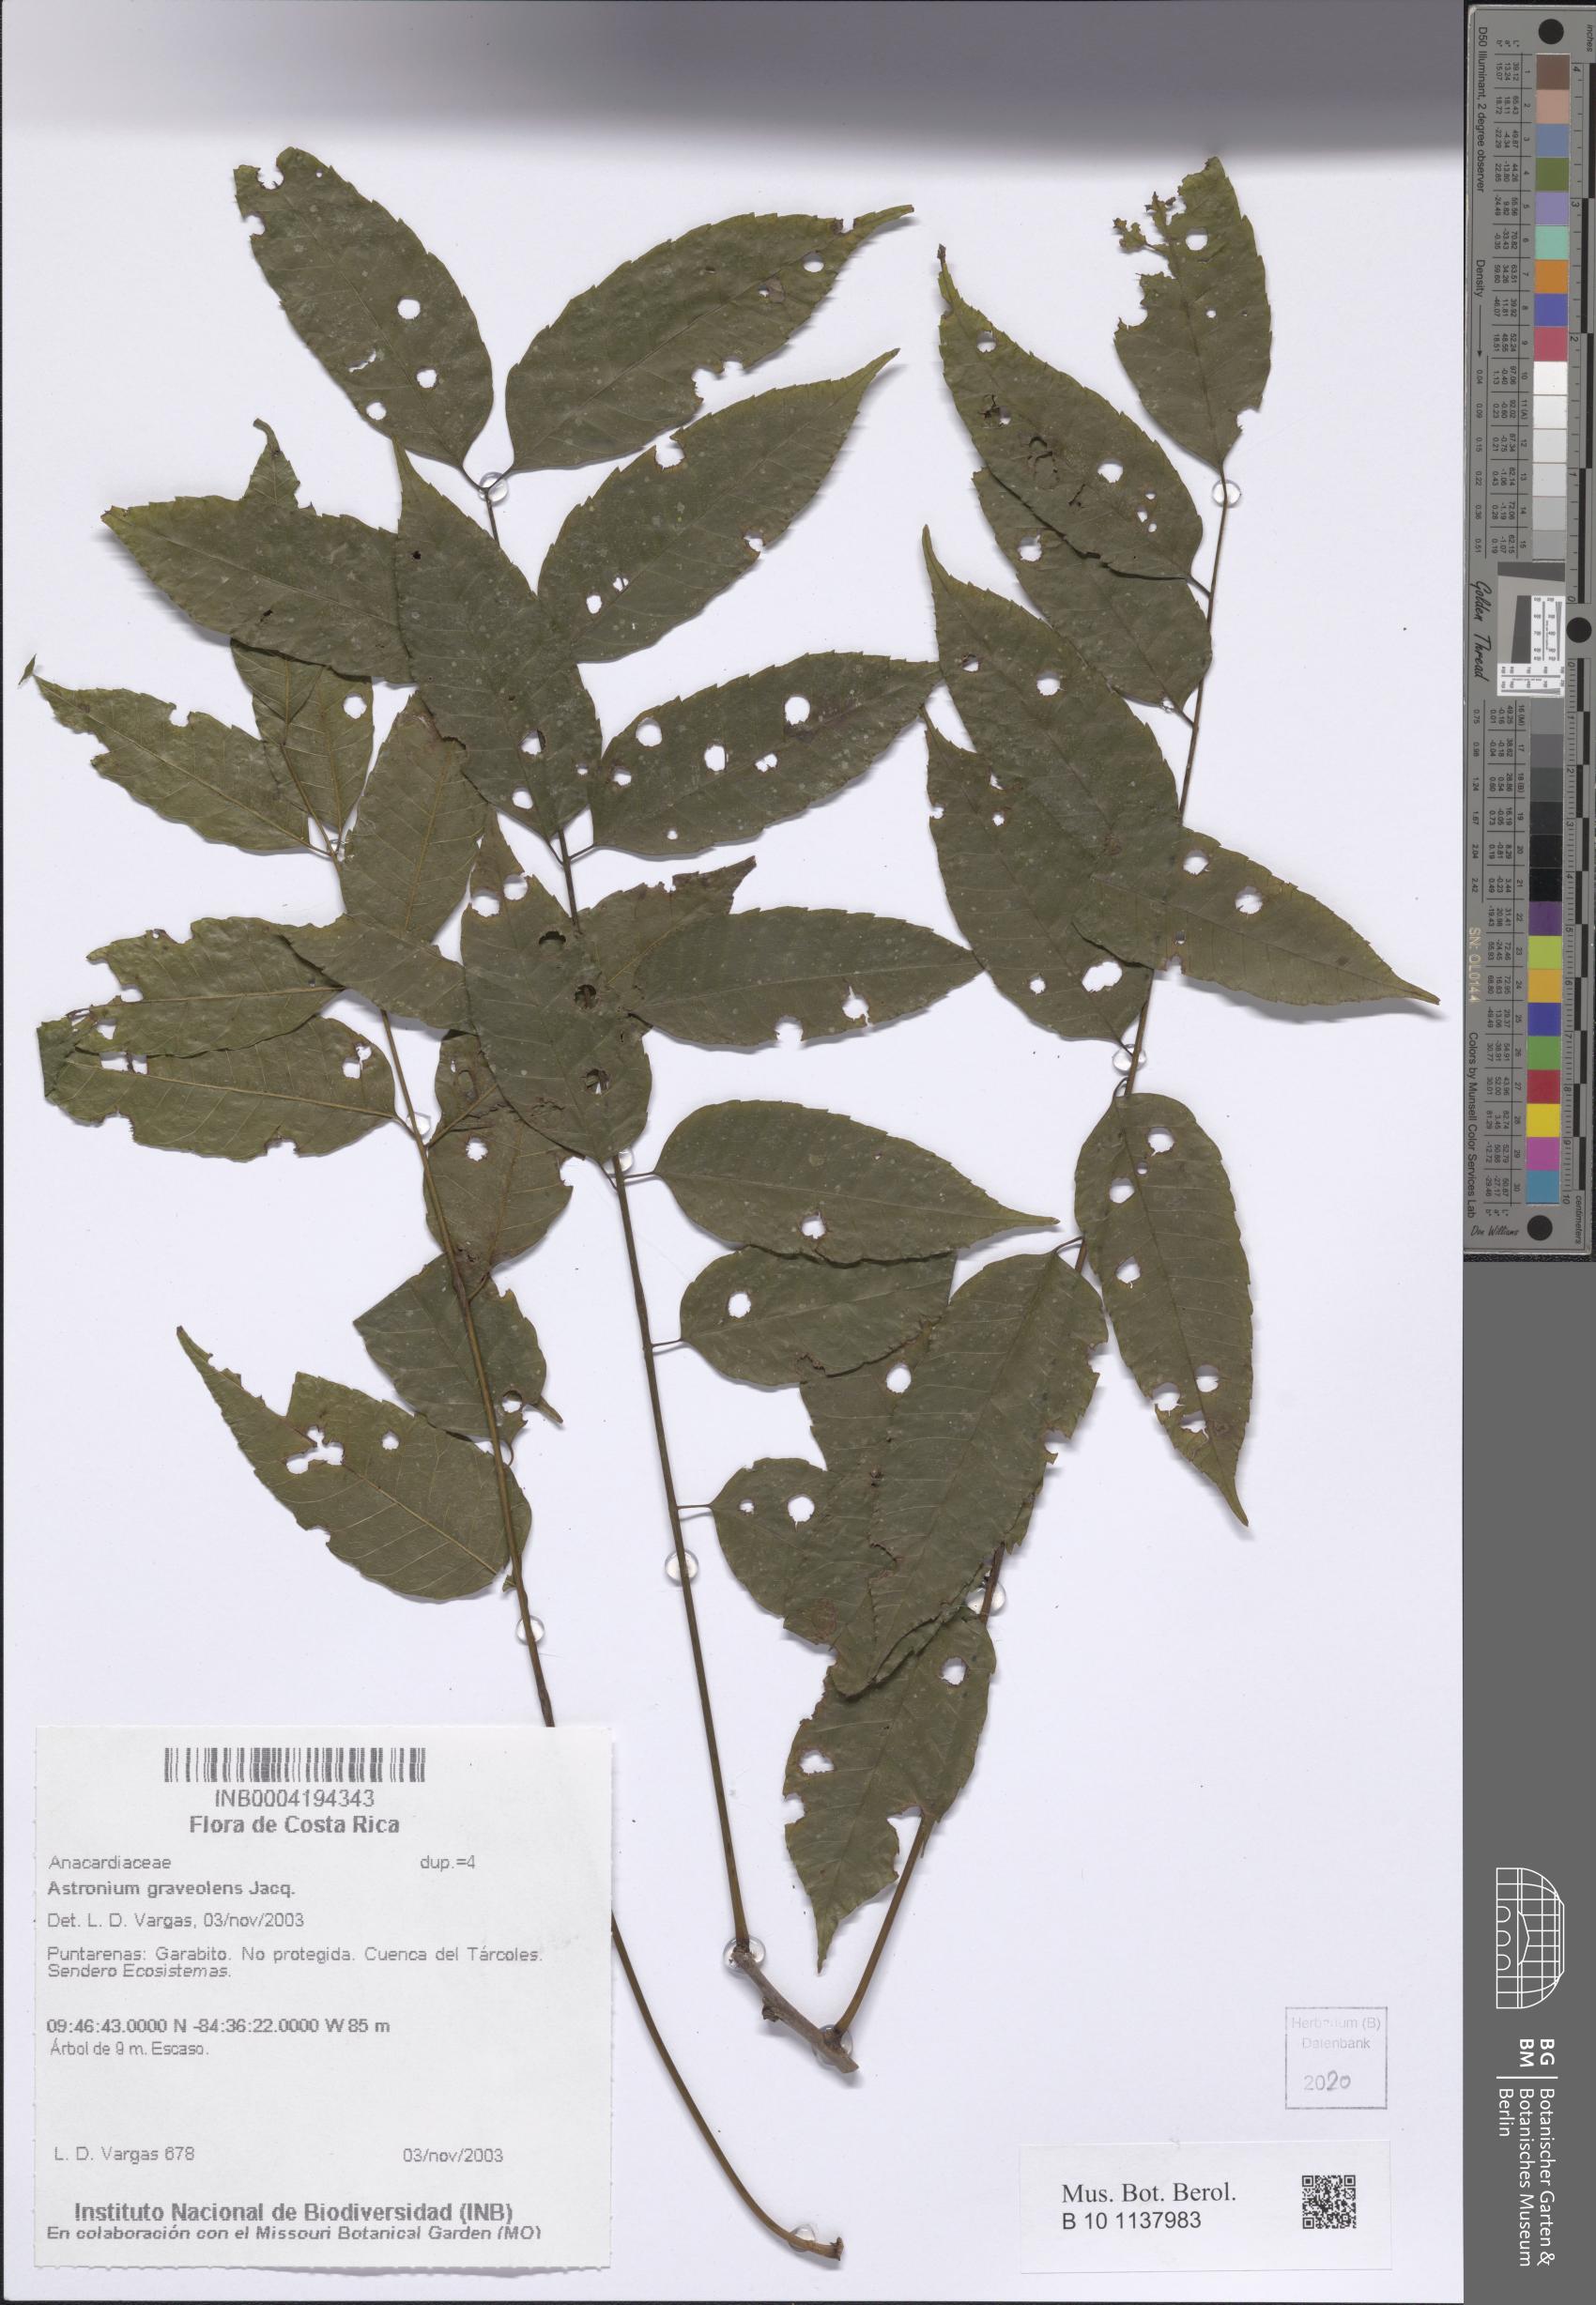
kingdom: Plantae
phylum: Tracheophyta
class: Magnoliopsida
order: Sapindales
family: Anacardiaceae
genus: Astronium
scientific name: Astronium graveolens
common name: Glassywood
